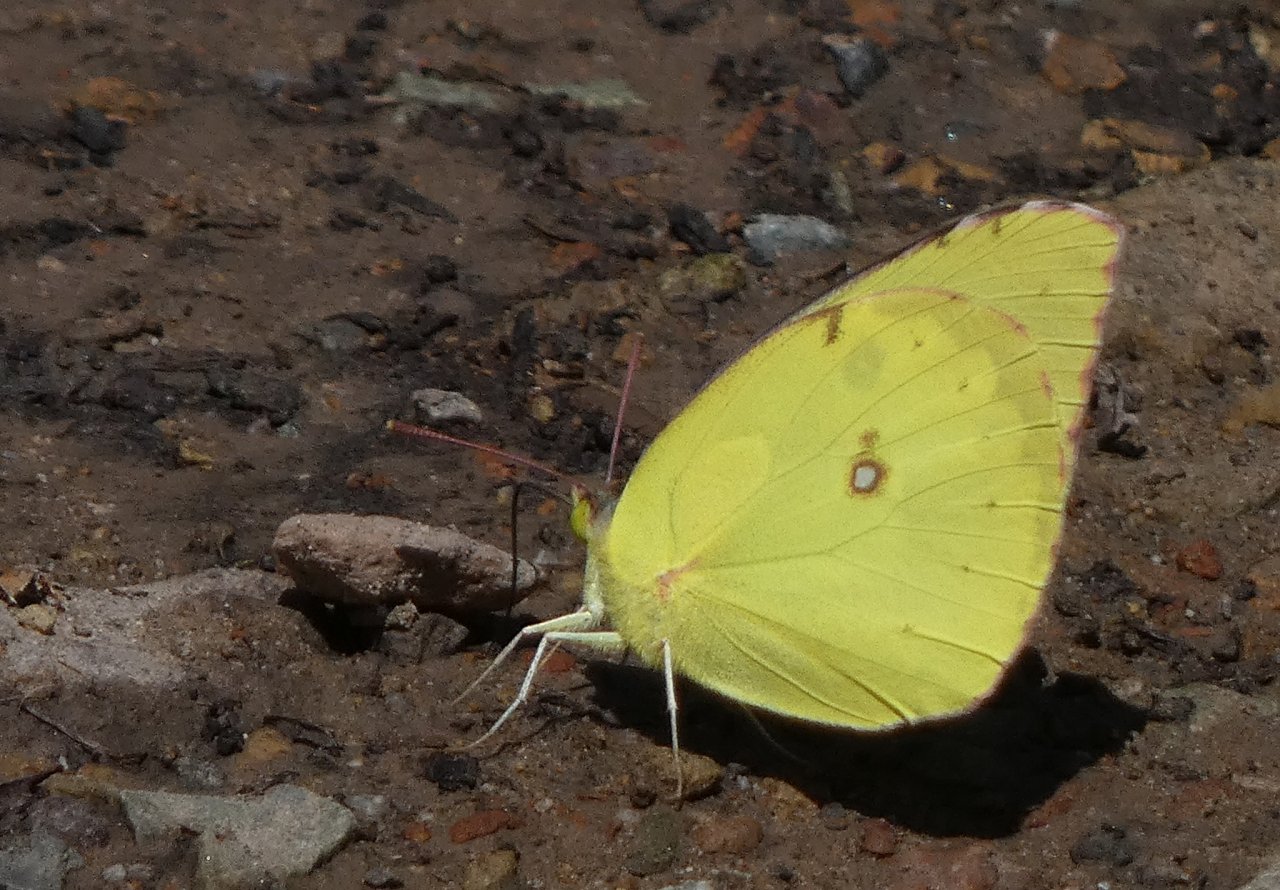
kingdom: Animalia
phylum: Arthropoda
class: Insecta
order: Lepidoptera
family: Pieridae
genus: Zerene
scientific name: Zerene cesonia
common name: Southern Dogface
